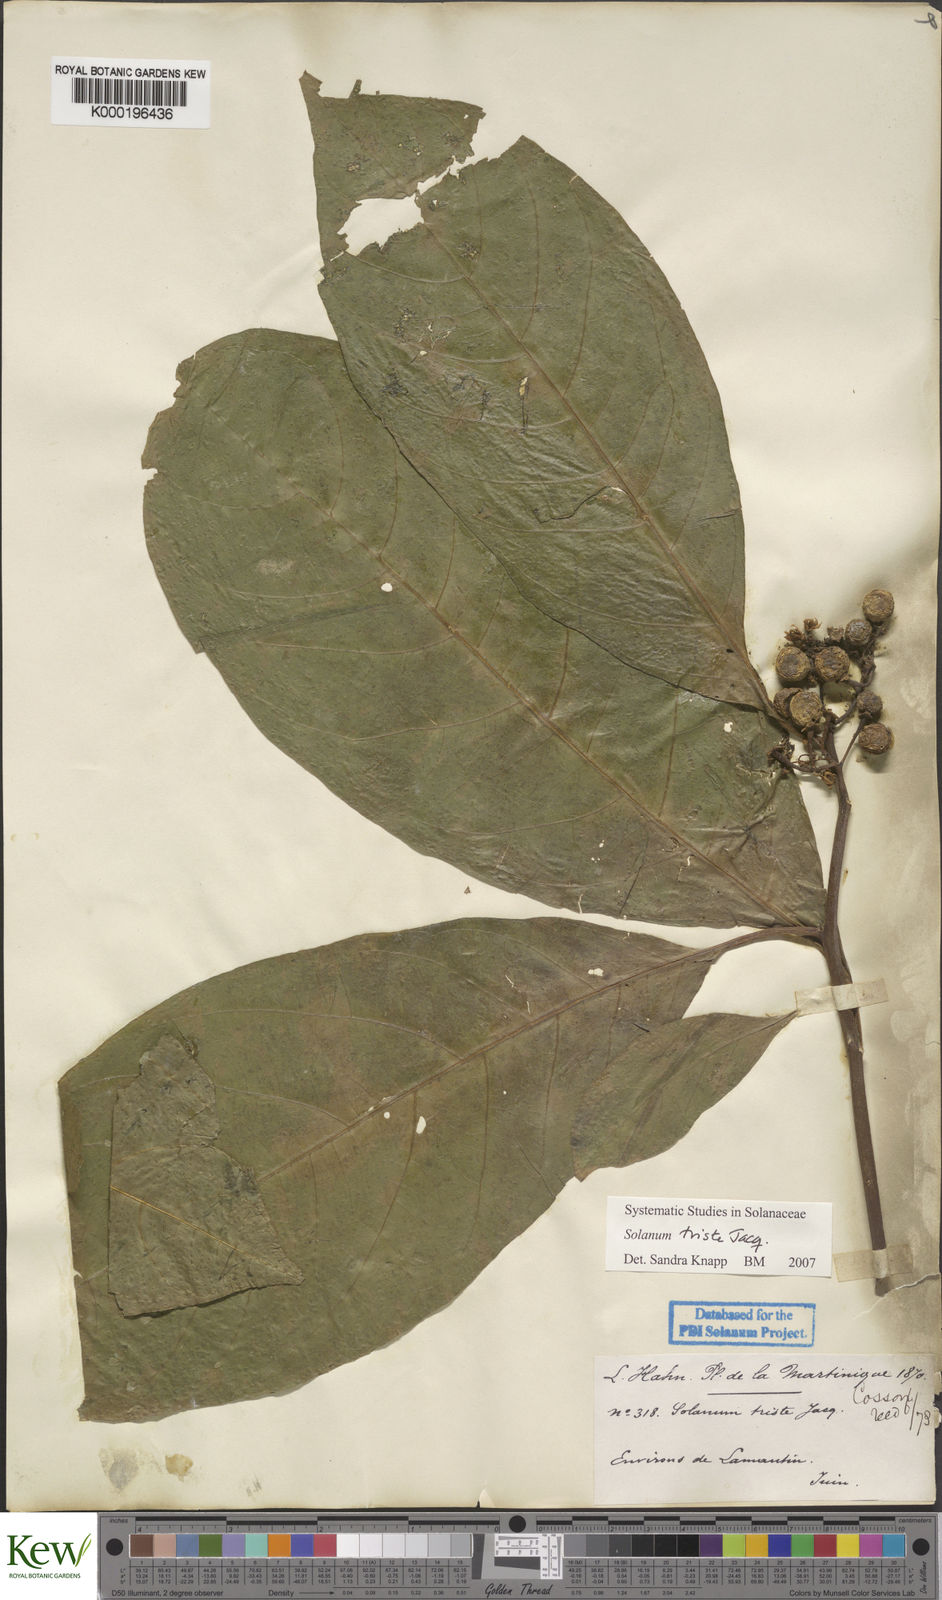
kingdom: Plantae
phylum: Tracheophyta
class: Magnoliopsida
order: Solanales
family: Solanaceae
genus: Solanum
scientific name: Solanum triste
